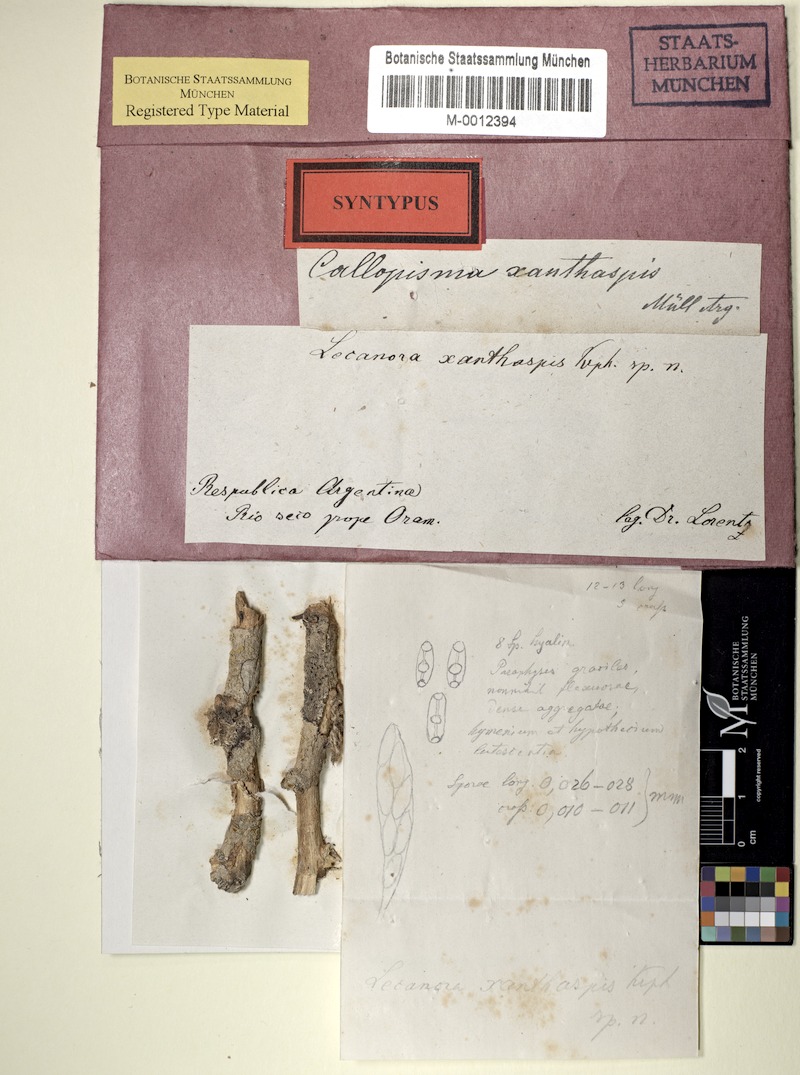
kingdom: Fungi
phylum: Ascomycota
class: Lecanoromycetes
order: Lecanorales
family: Ramalinaceae
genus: Lecania
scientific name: Lecania
